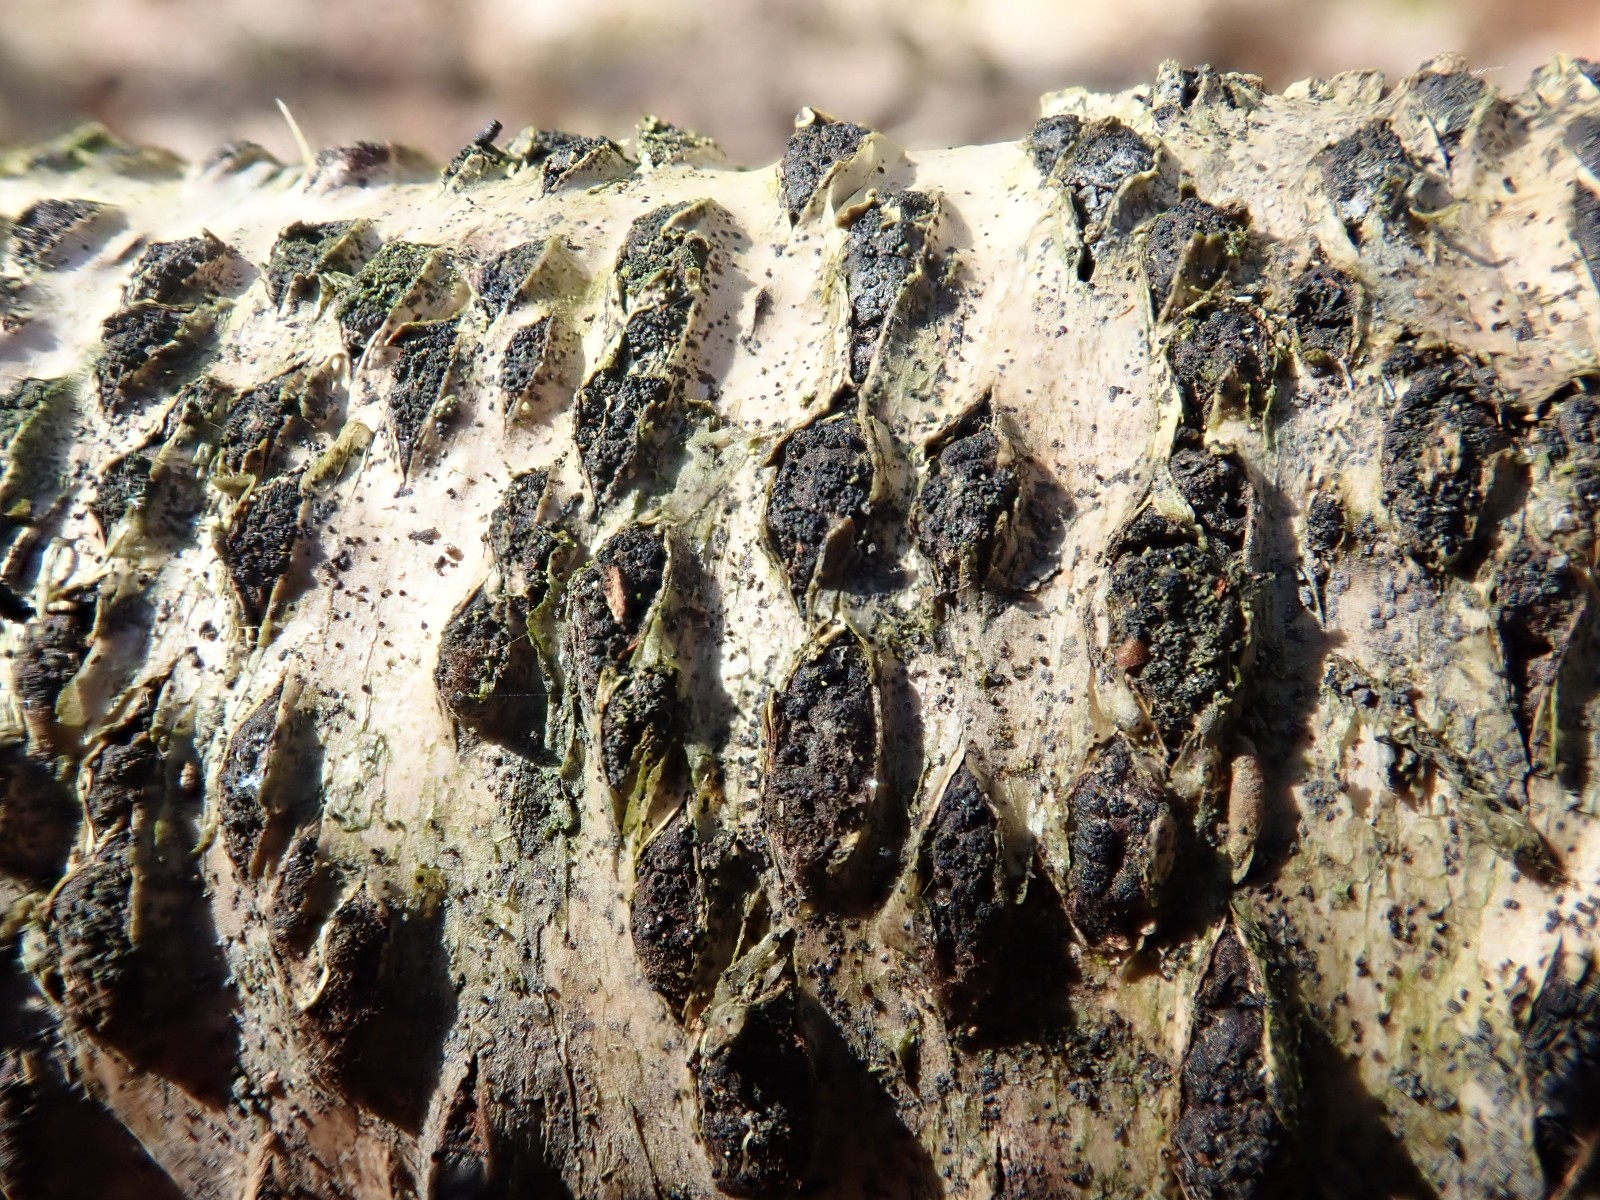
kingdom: Fungi
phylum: Ascomycota
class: Sordariomycetes
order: Xylariales
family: Diatrypaceae
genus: Diatrypella
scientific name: Diatrypella favacea
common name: Birch blackhead
